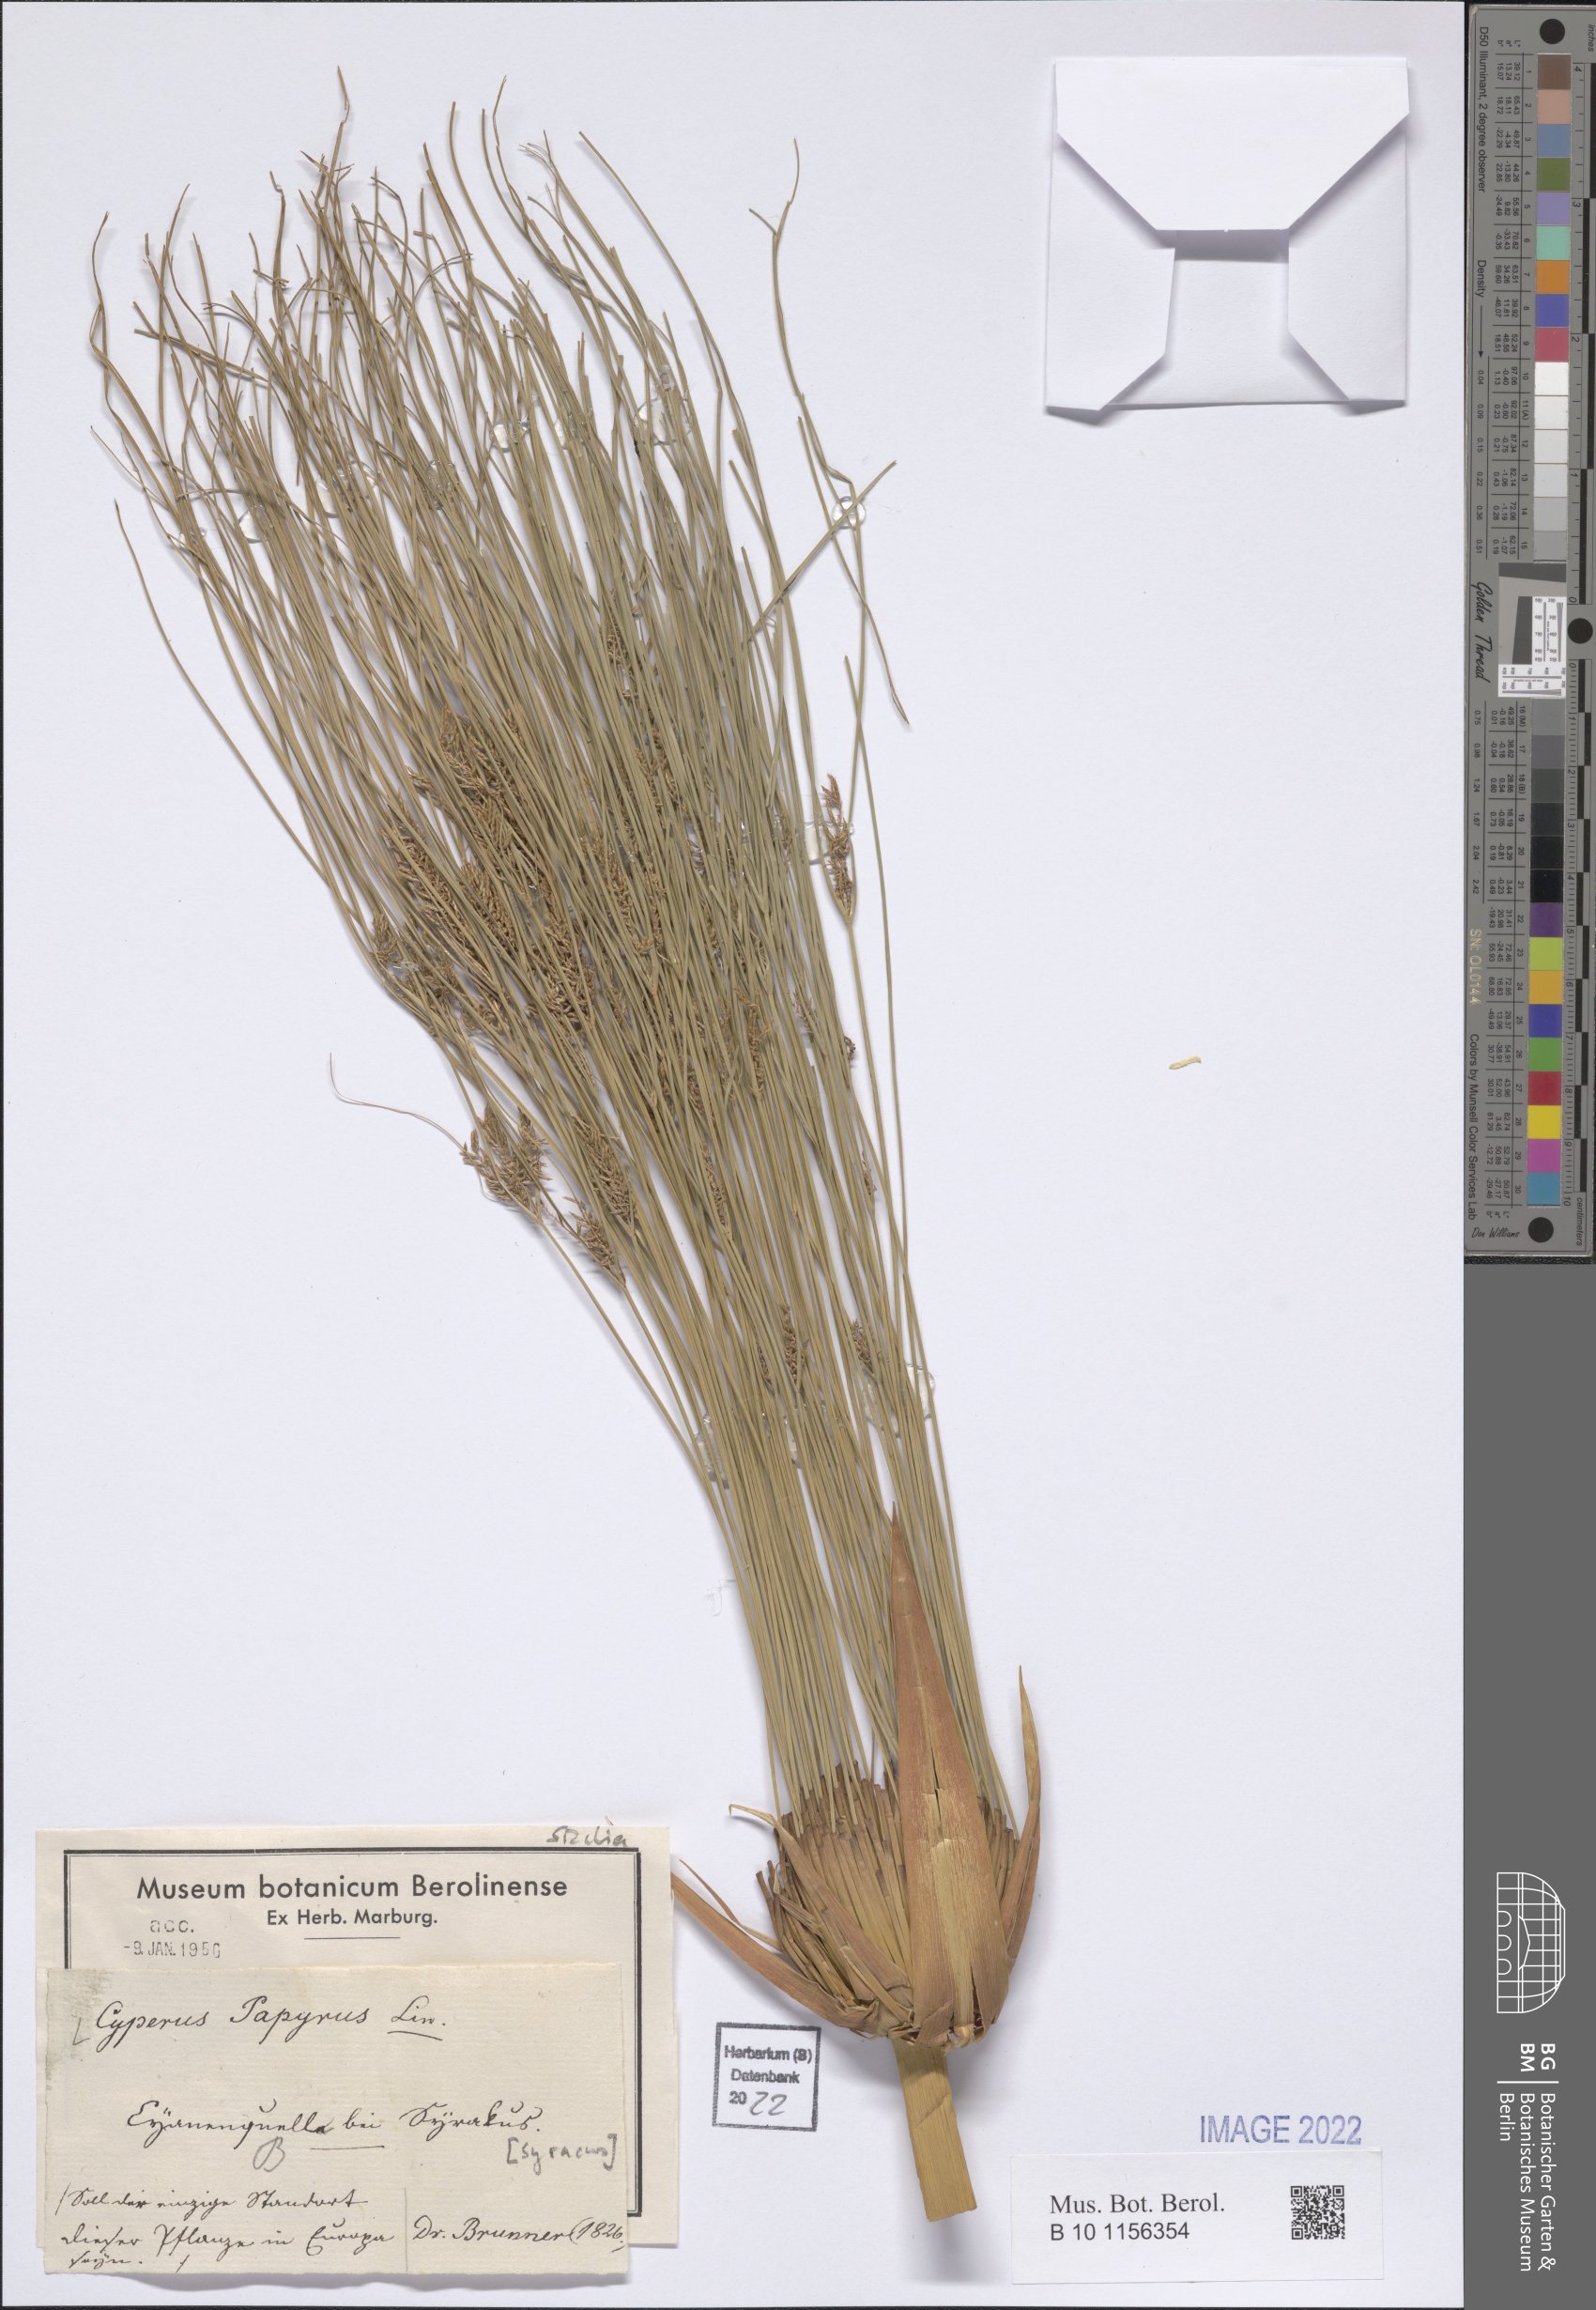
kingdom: Plantae
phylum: Tracheophyta
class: Liliopsida
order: Poales
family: Cyperaceae
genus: Cyperus
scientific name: Cyperus papyrus
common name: Papyrus
